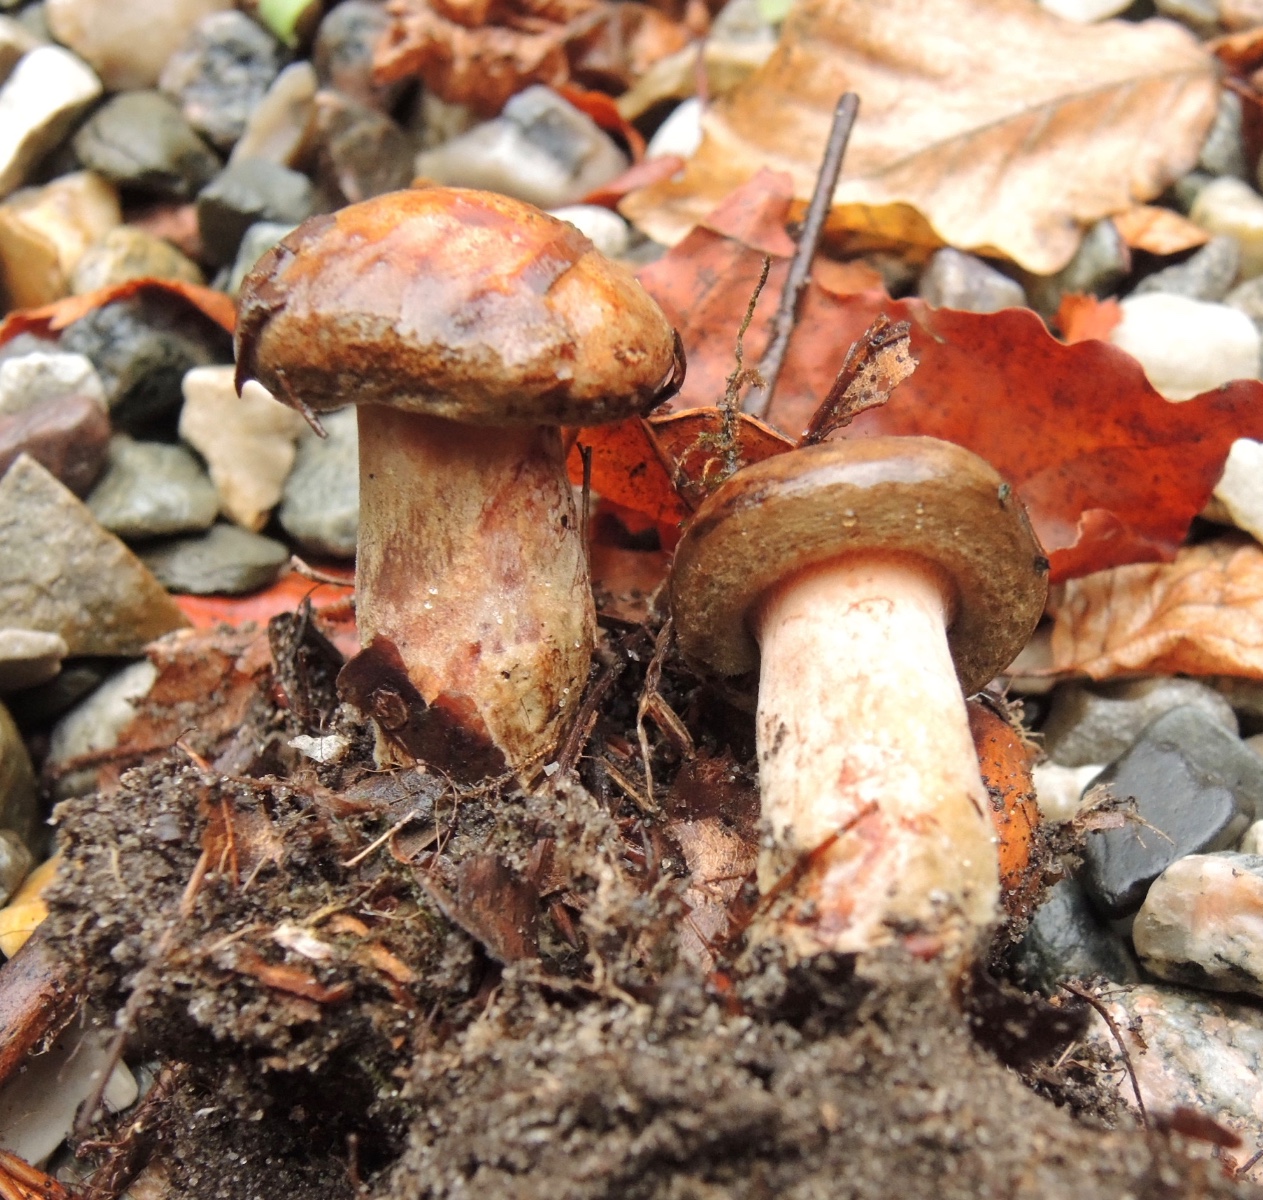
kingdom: Fungi
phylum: Basidiomycota
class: Agaricomycetes
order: Boletales
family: Paxillaceae
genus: Paxillus
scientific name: Paxillus involutus
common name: almindelig netbladhat
